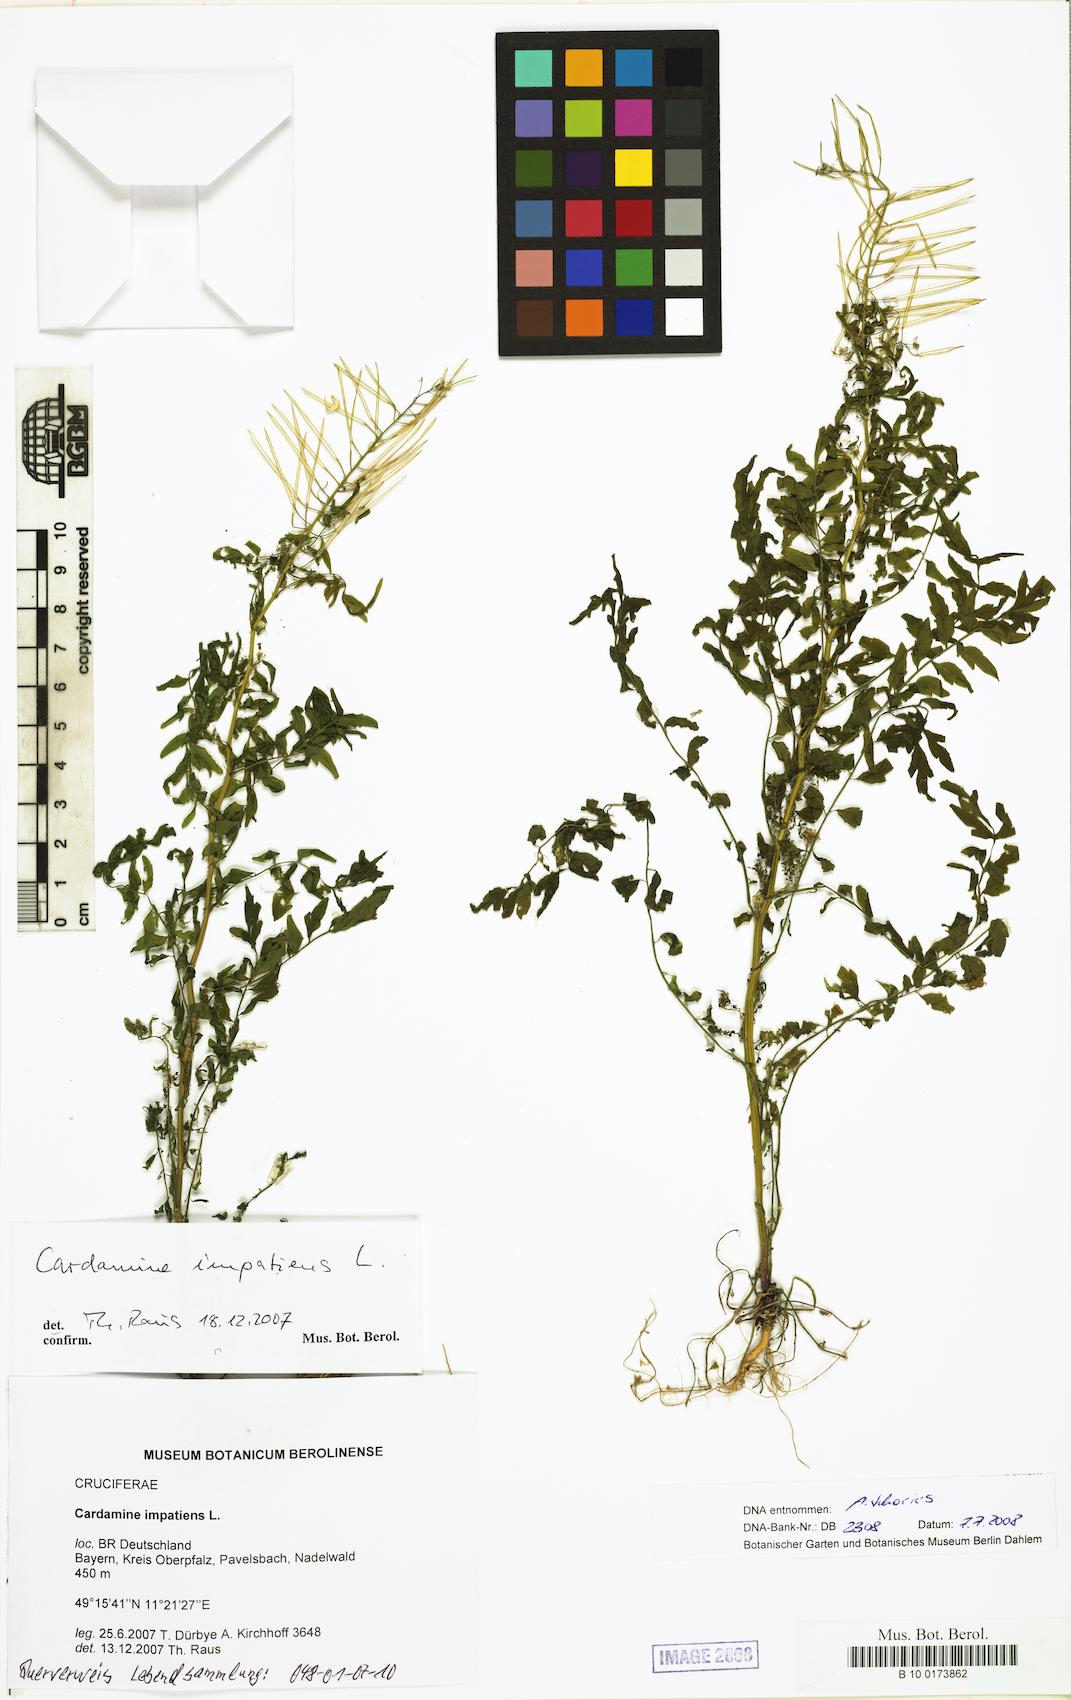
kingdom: Plantae
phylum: Tracheophyta
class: Magnoliopsida
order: Brassicales
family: Brassicaceae
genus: Cardamine
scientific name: Cardamine impatiens
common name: Narrow-leaved bitter-cress
